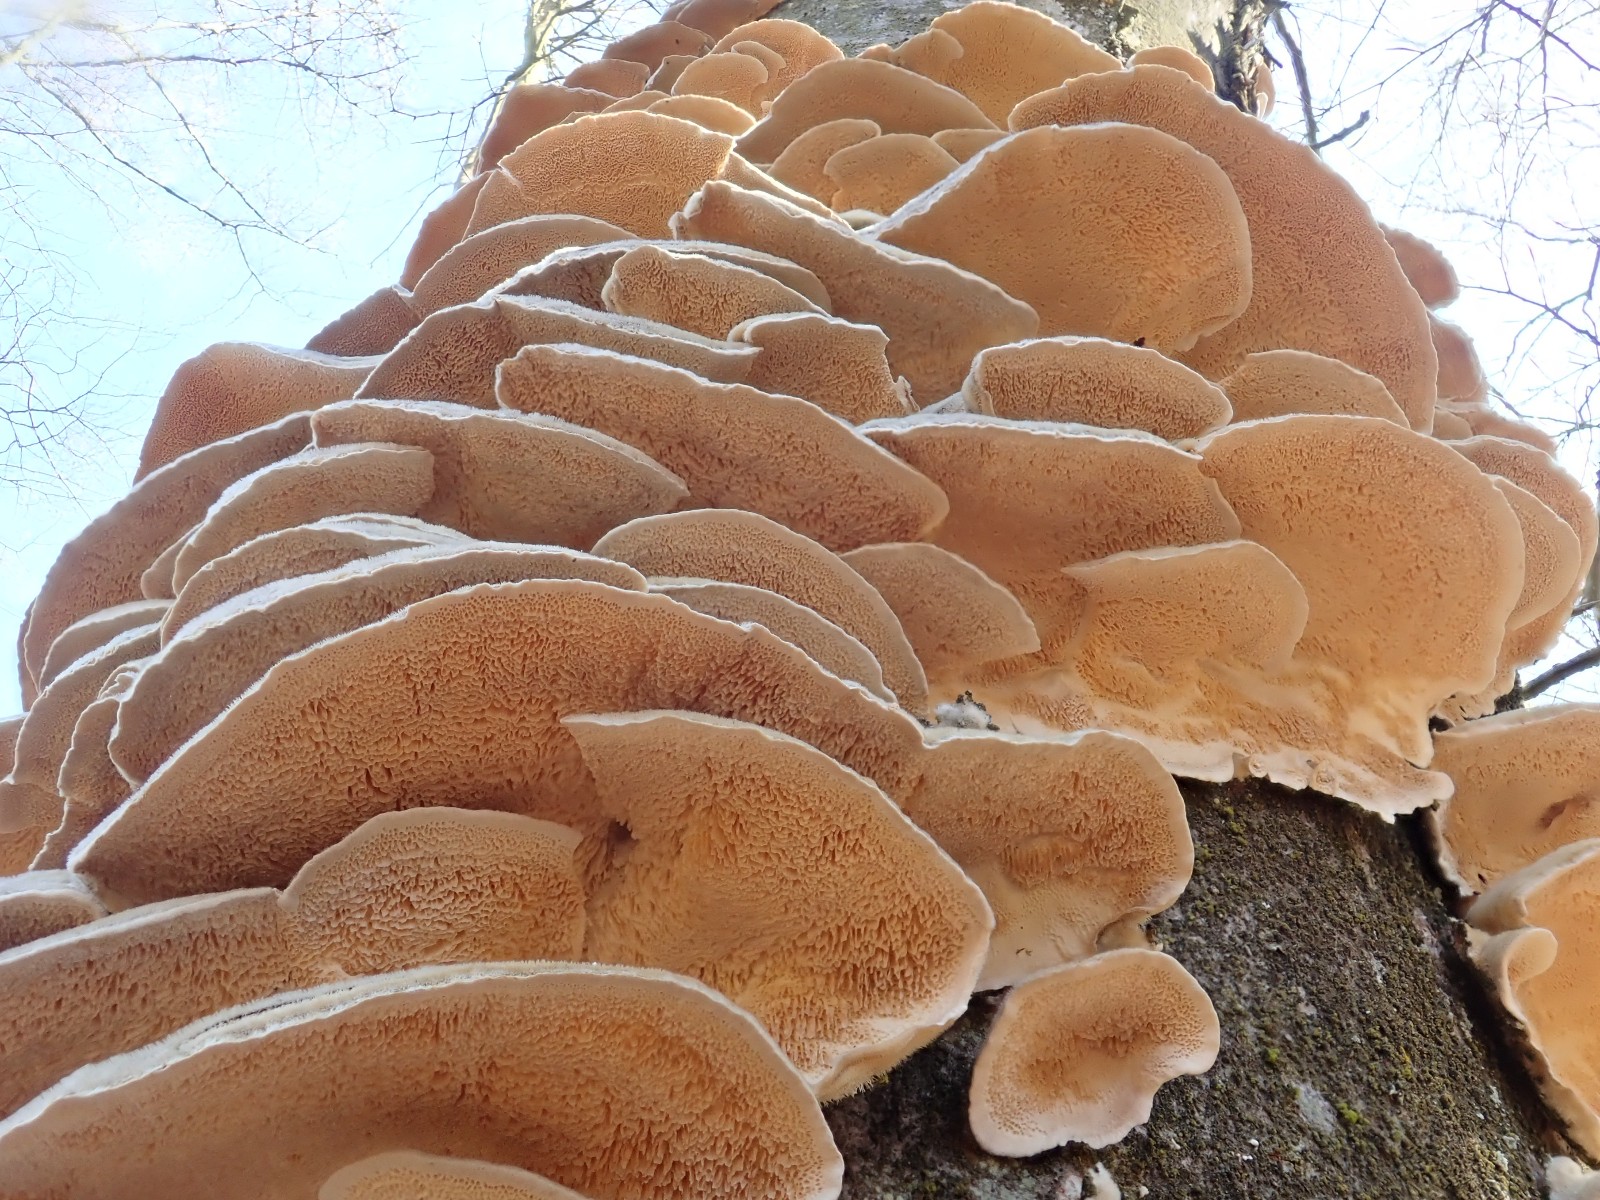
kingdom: Fungi
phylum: Basidiomycota
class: Agaricomycetes
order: Polyporales
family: Polyporaceae
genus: Trametes
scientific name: Trametes versicolor
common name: broget læderporesvamp
